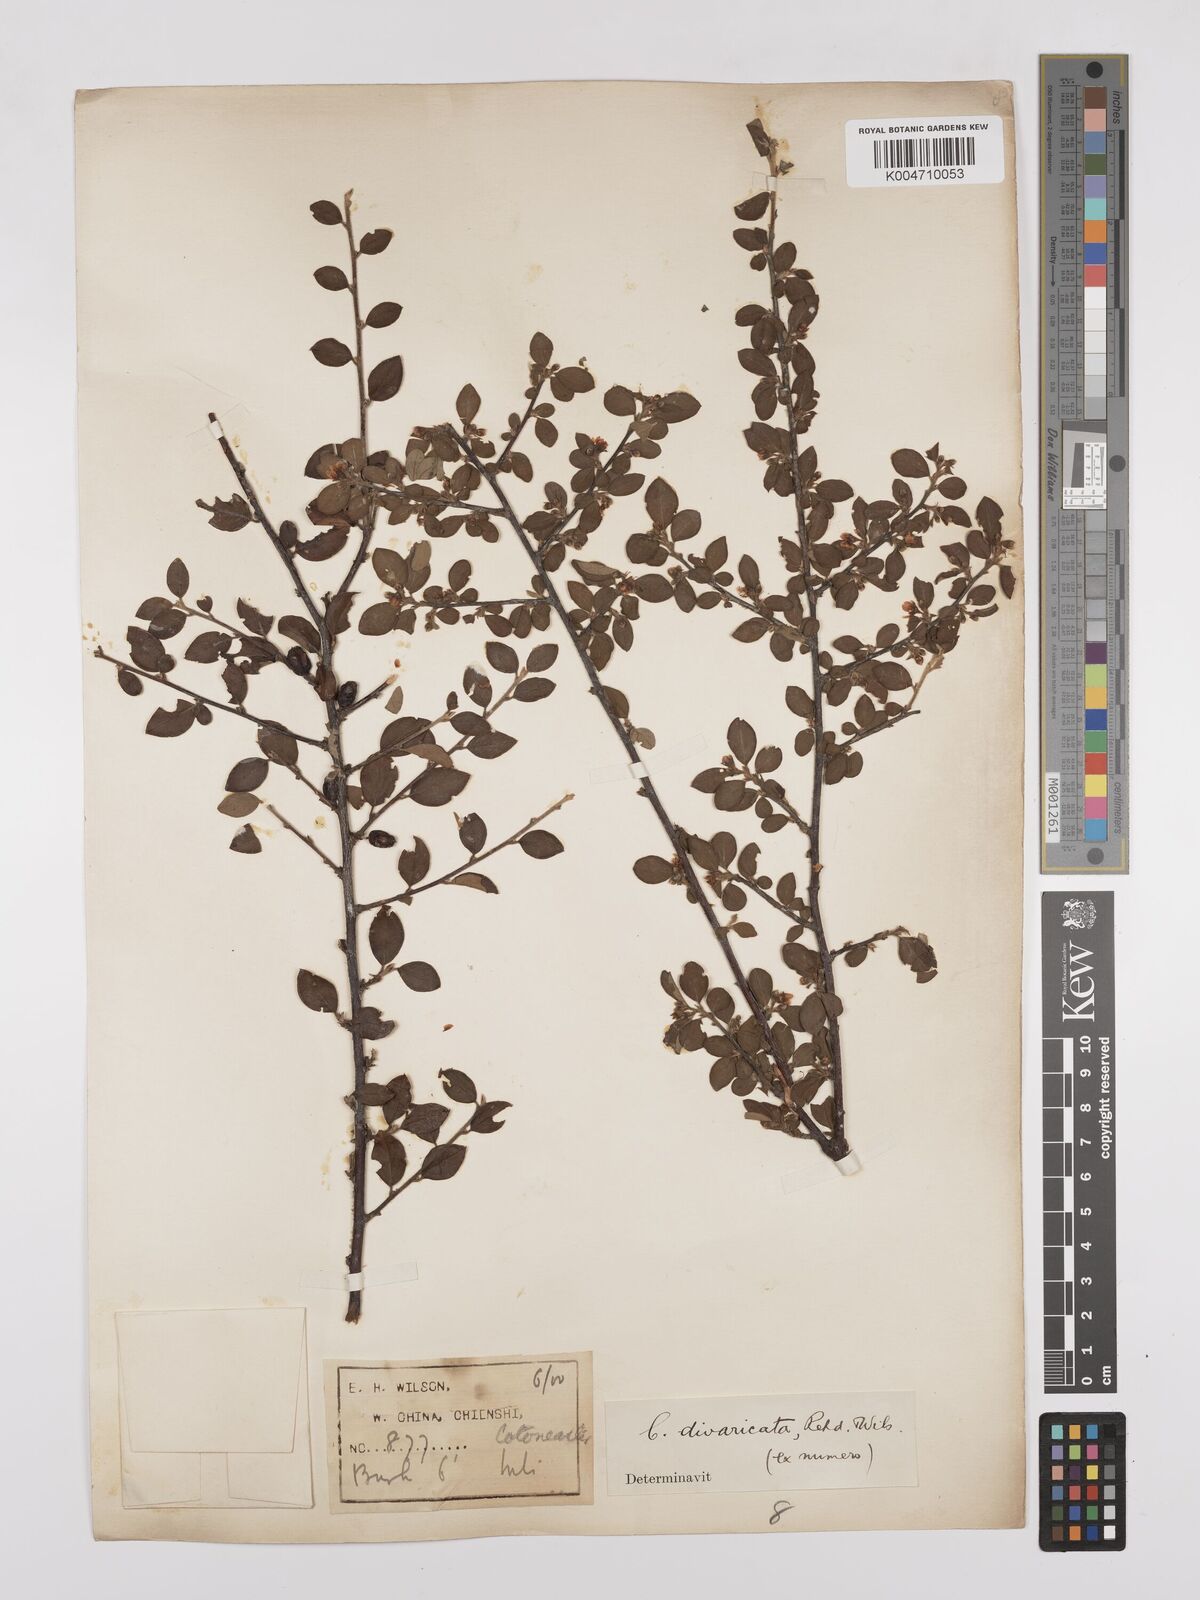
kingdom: Plantae
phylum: Tracheophyta
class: Magnoliopsida
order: Rosales
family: Rosaceae
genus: Cotoneaster
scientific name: Cotoneaster divaricatus
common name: Spreading cotoneaster
